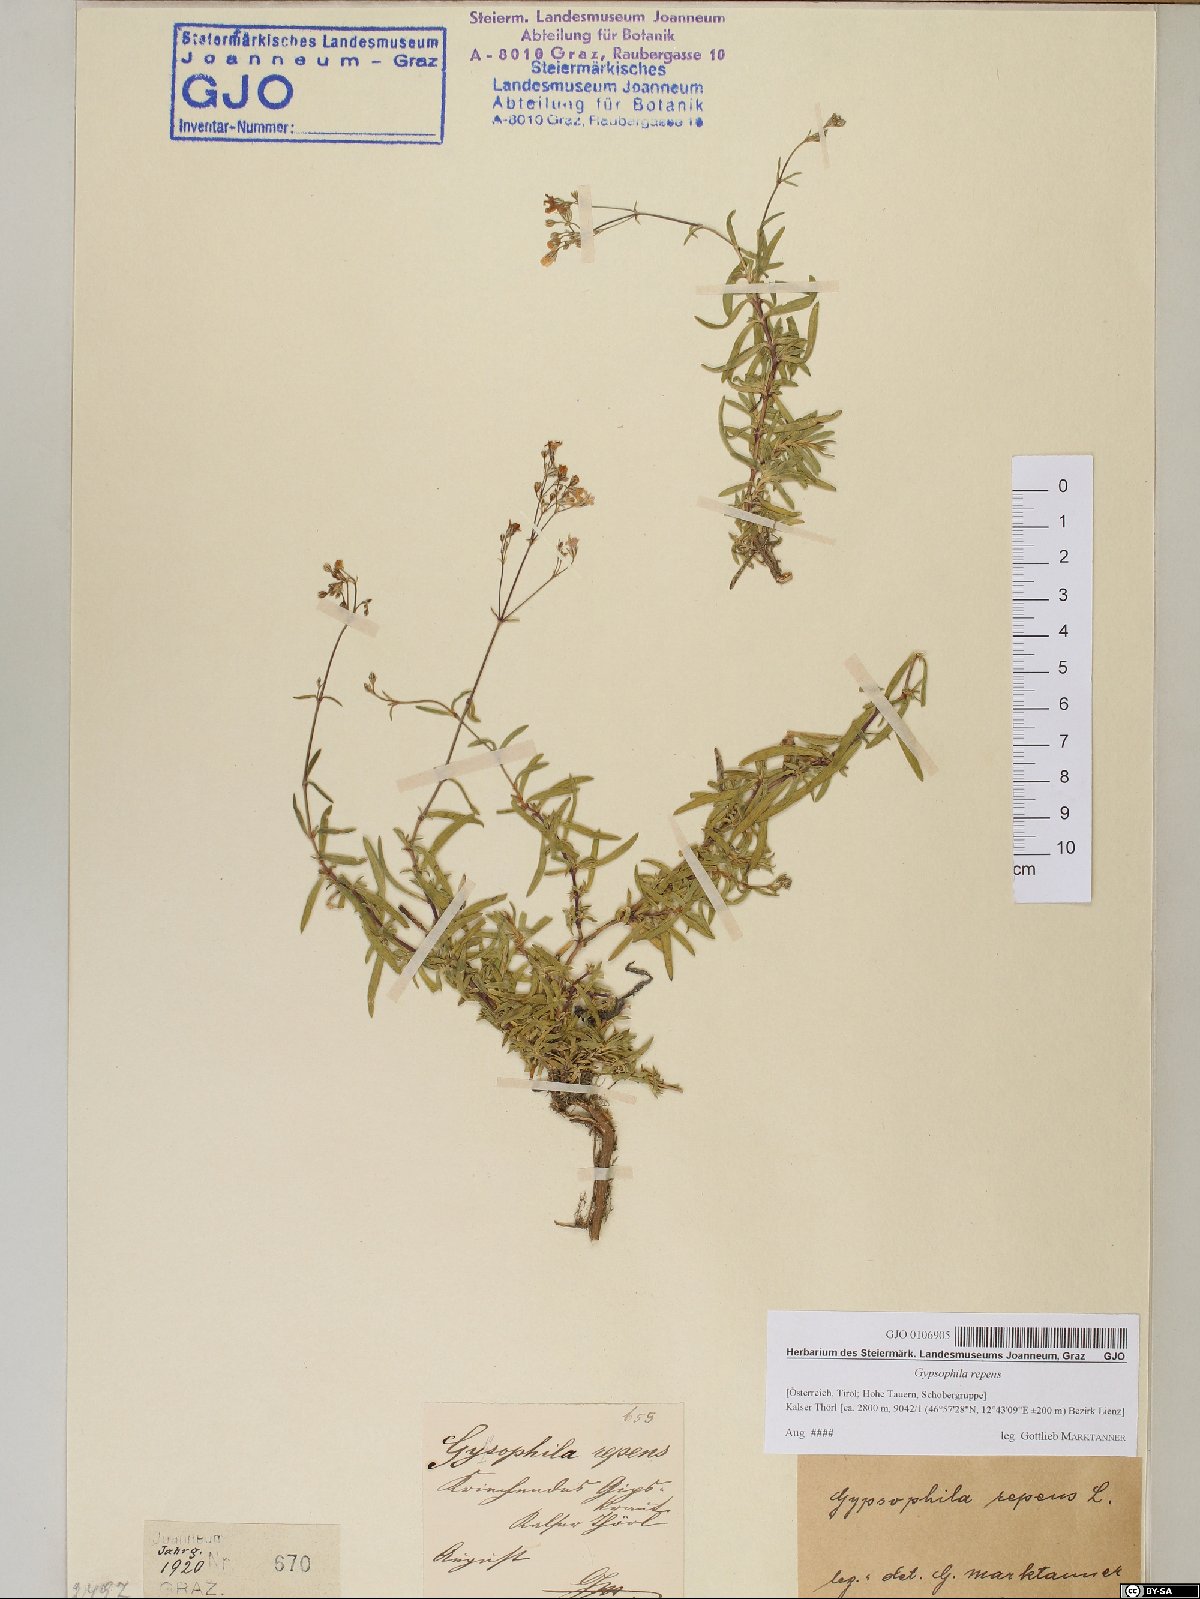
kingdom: Plantae
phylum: Tracheophyta
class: Magnoliopsida
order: Caryophyllales
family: Caryophyllaceae
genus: Gypsophila
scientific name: Gypsophila repens
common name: Creeping baby's-breath
